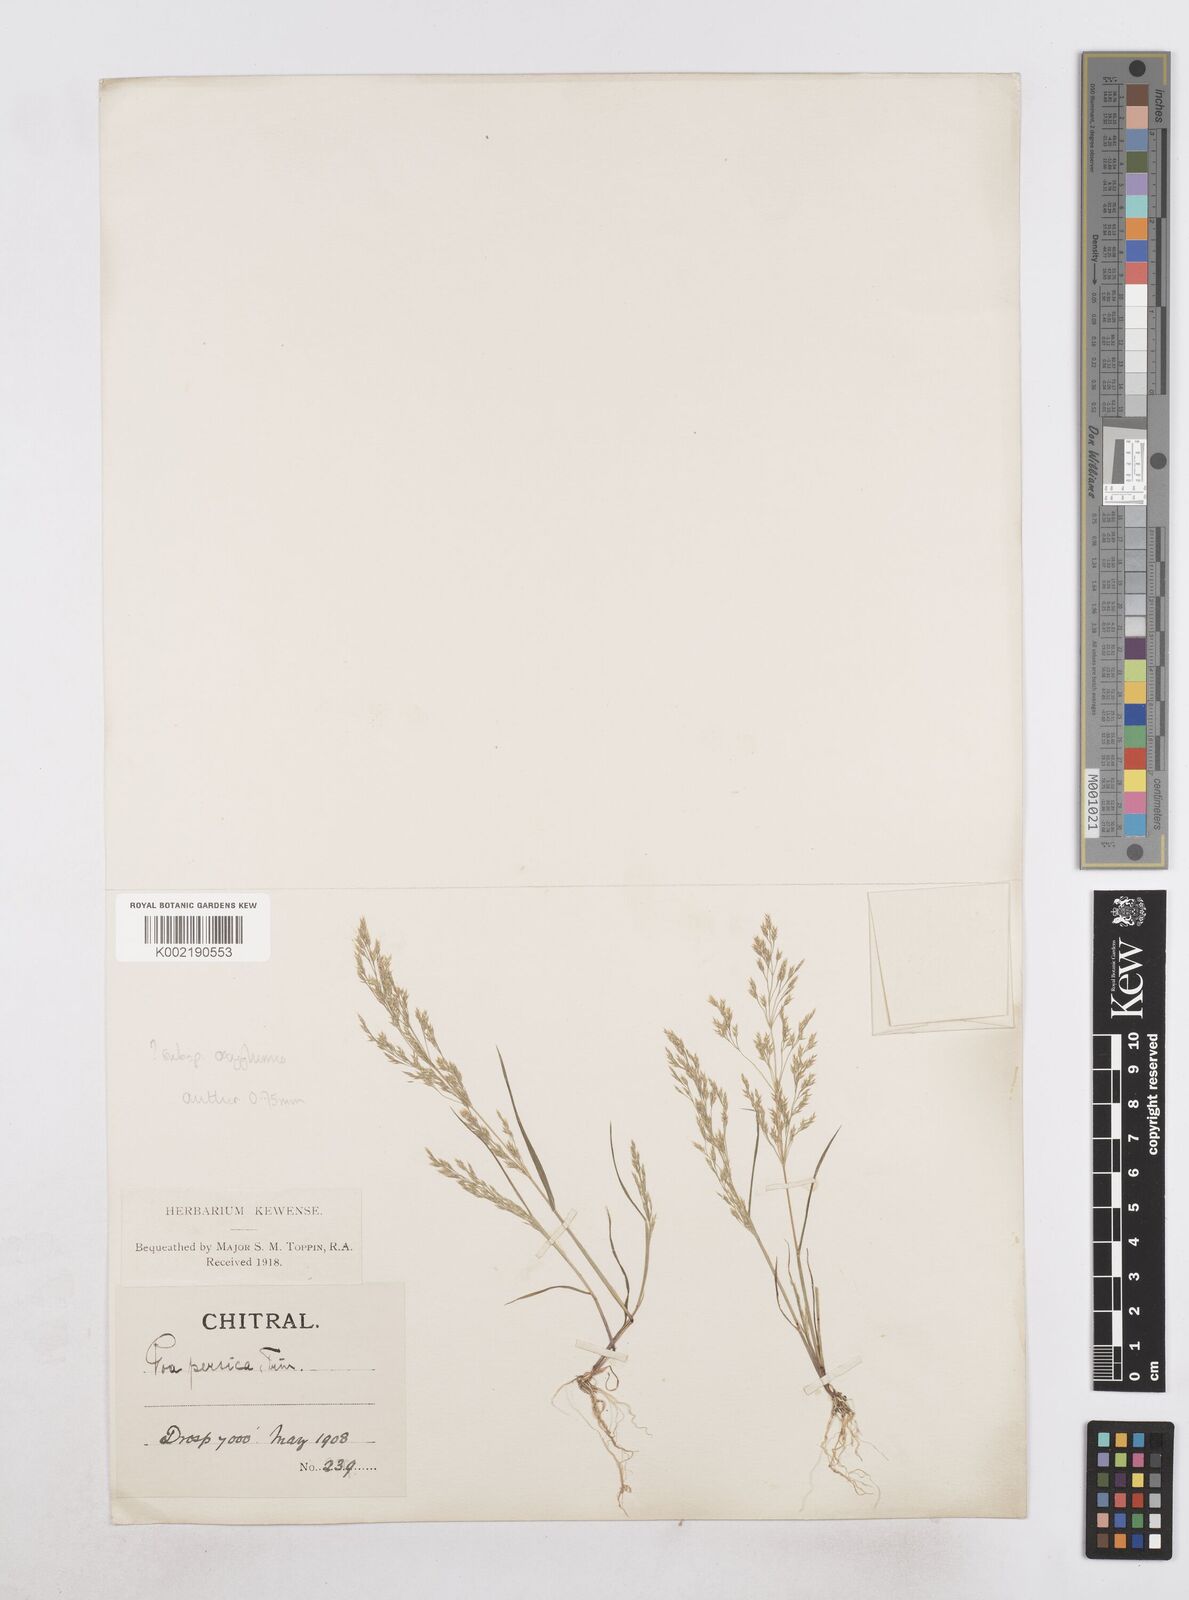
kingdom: Plantae
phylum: Tracheophyta
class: Liliopsida
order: Poales
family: Poaceae
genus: Poa
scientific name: Poa diaphora
